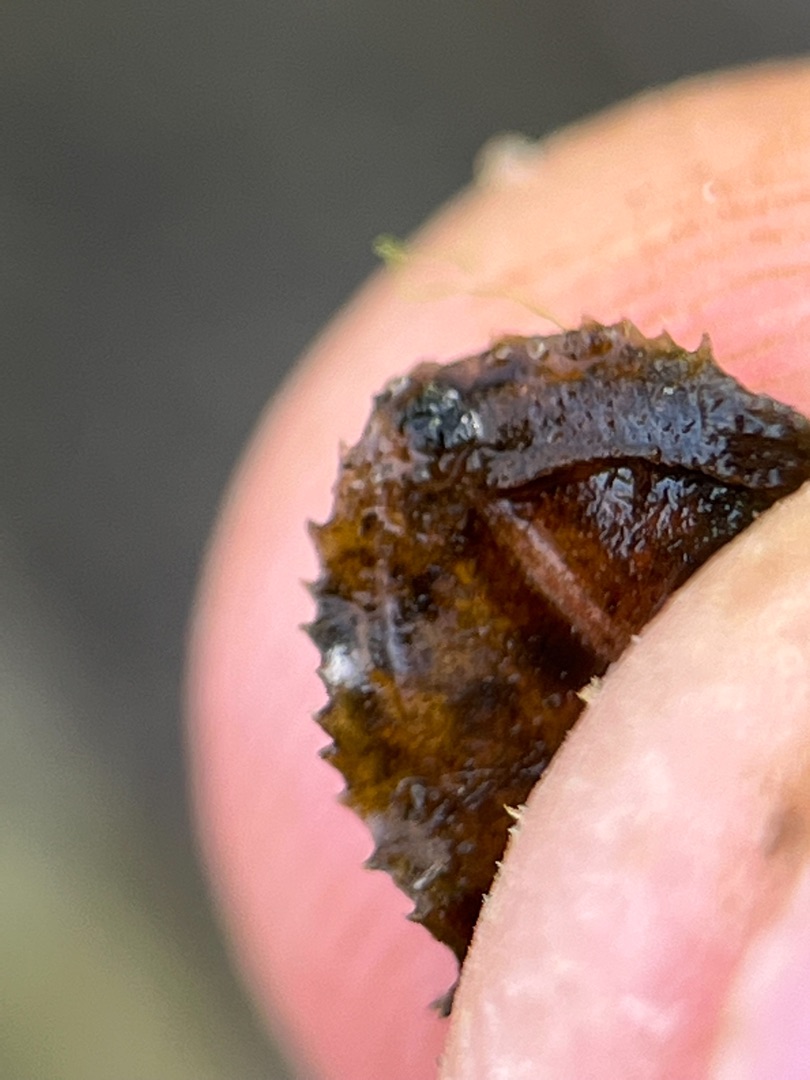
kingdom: Plantae
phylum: Tracheophyta
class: Liliopsida
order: Alismatales
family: Potamogetonaceae
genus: Potamogeton
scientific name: Potamogeton crispus
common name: Kruset vandaks
